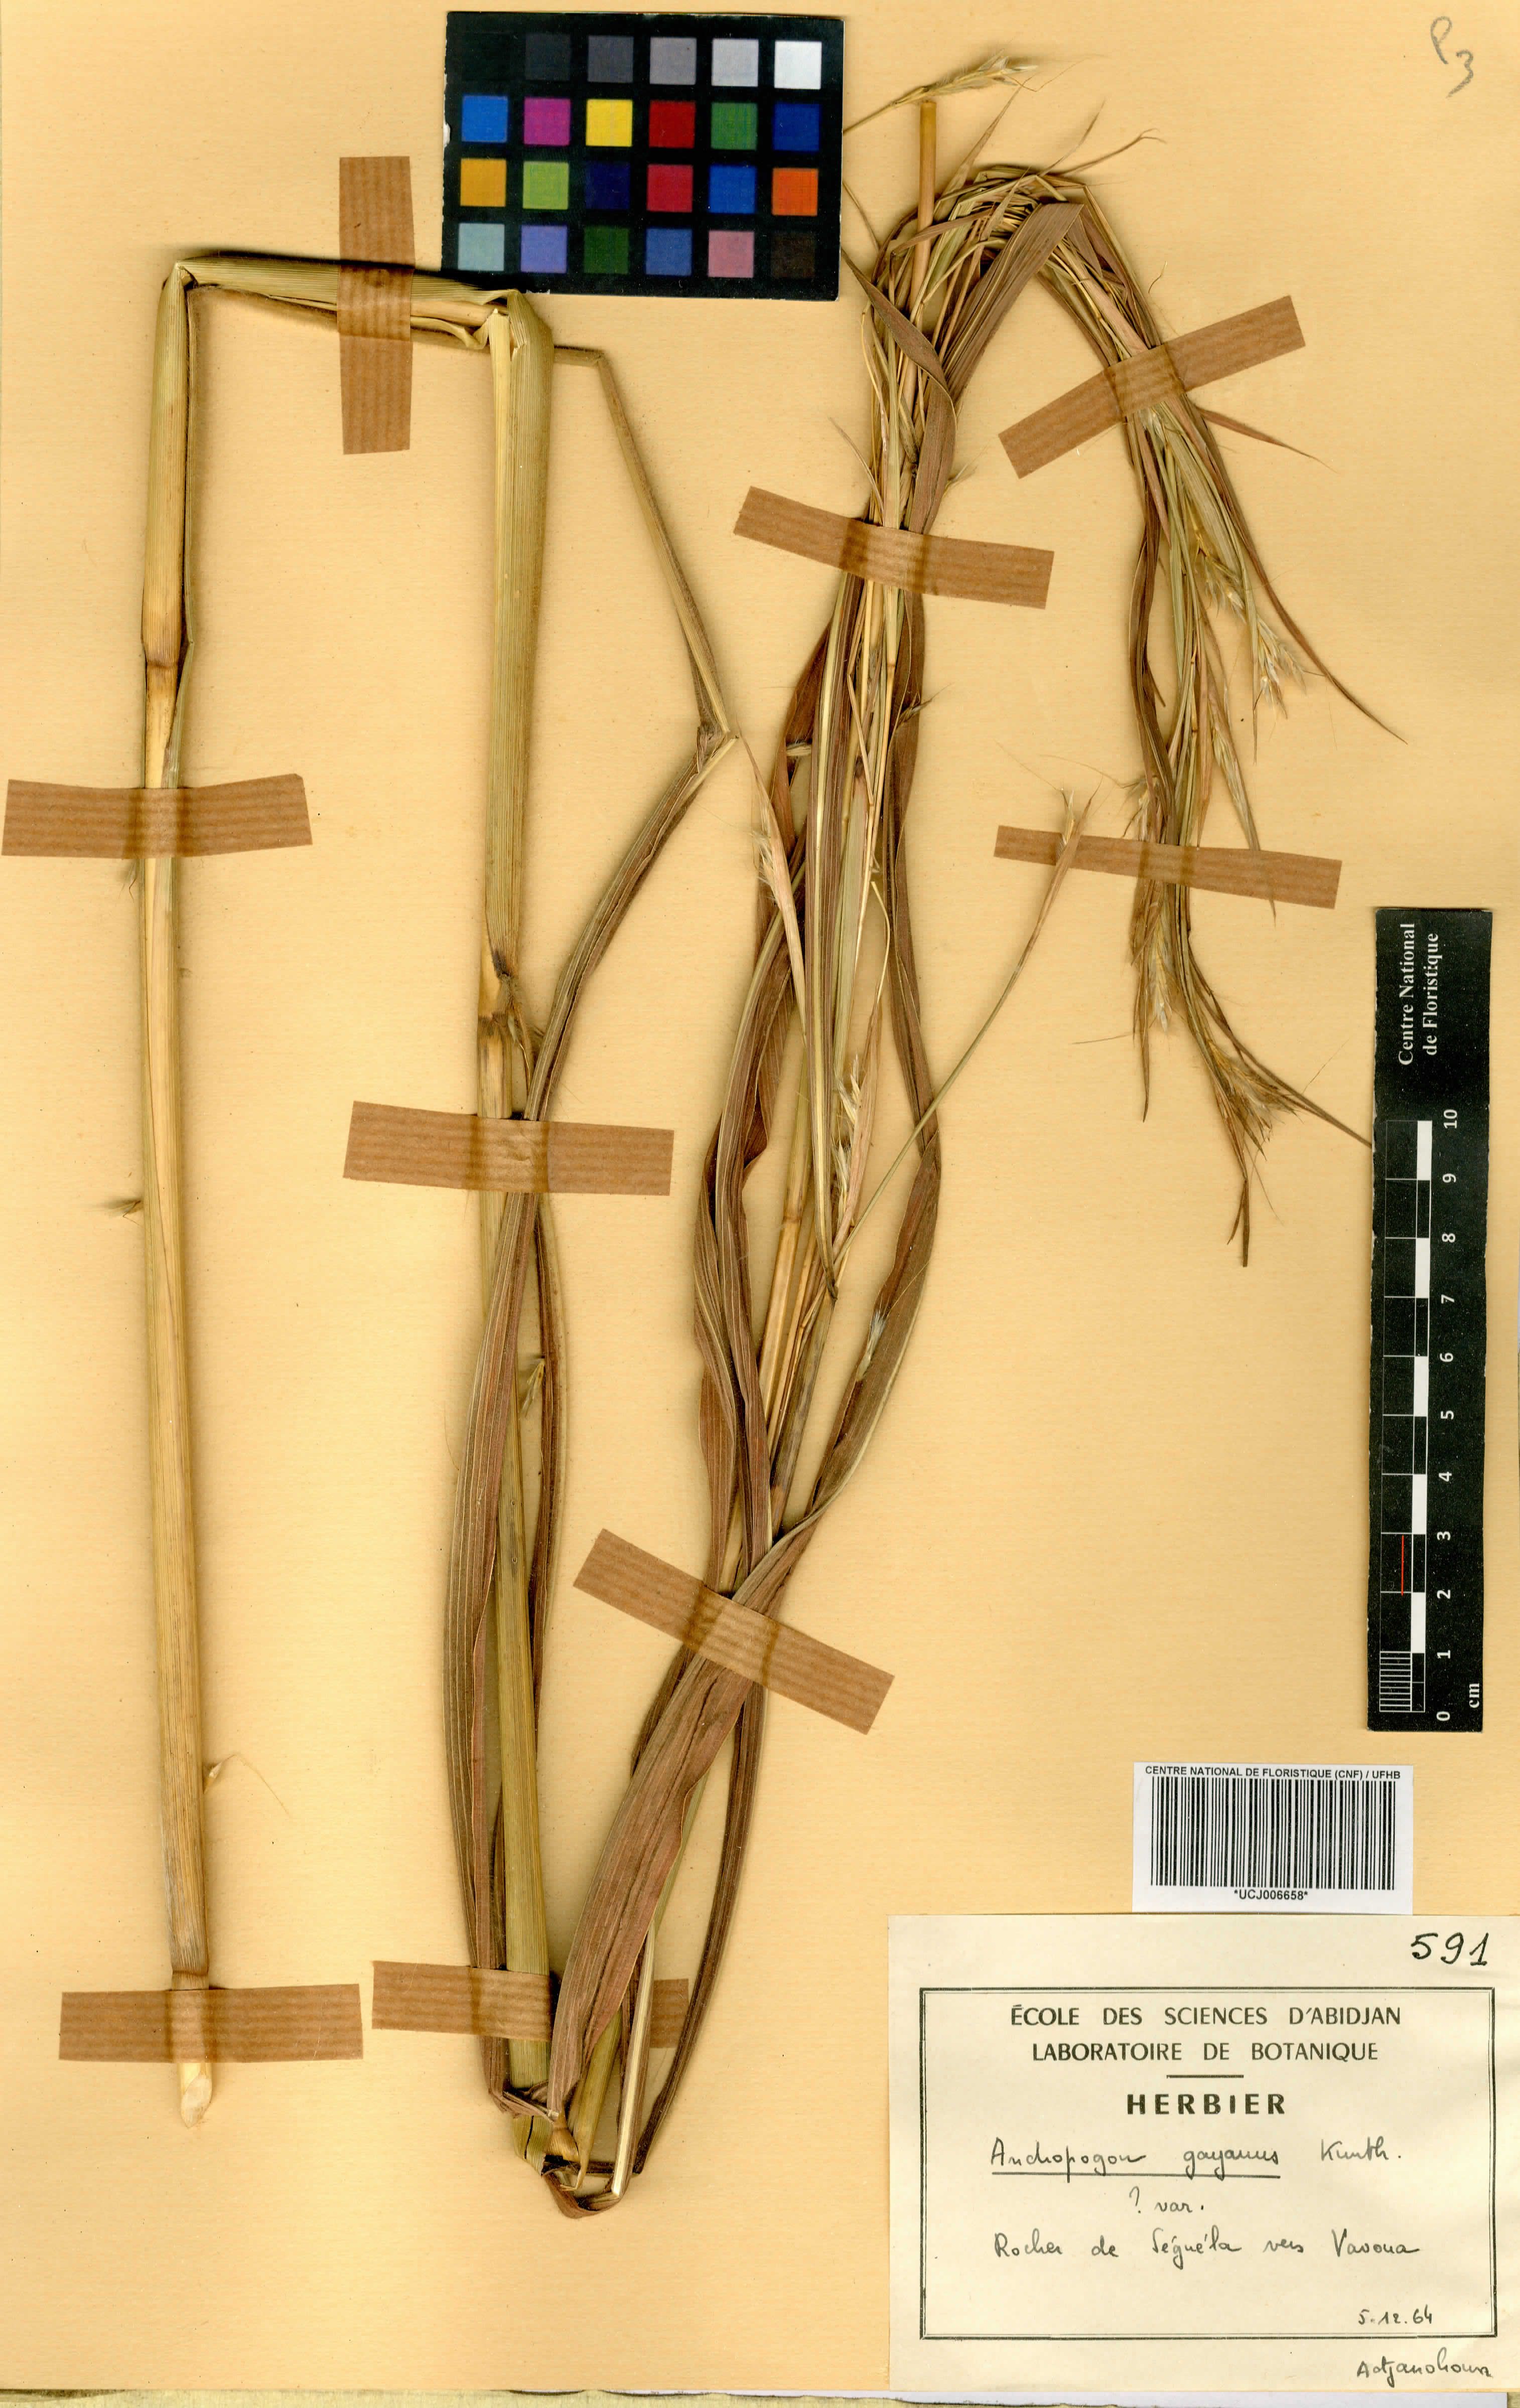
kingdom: Plantae
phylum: Tracheophyta
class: Liliopsida
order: Poales
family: Poaceae
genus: Andropogon
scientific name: Andropogon gayanus
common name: Tambuki grass
